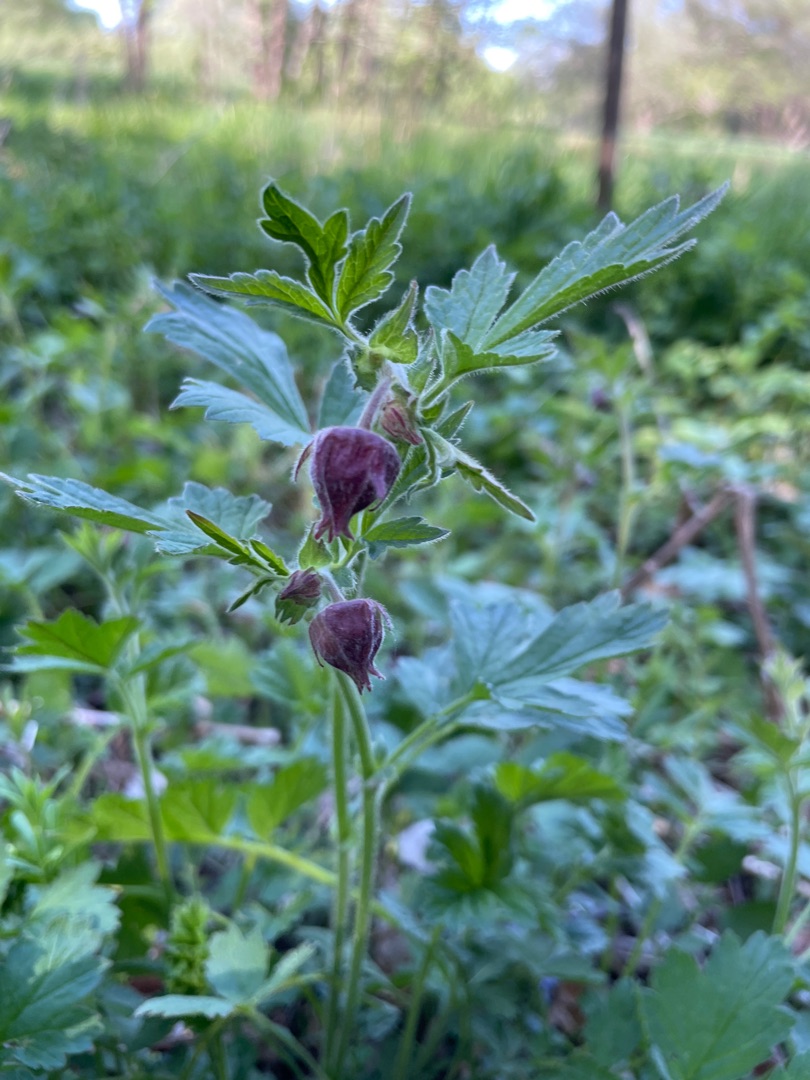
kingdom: Plantae
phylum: Tracheophyta
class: Magnoliopsida
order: Rosales
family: Rosaceae
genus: Geum
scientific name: Geum rivale
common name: Eng-nellikerod
